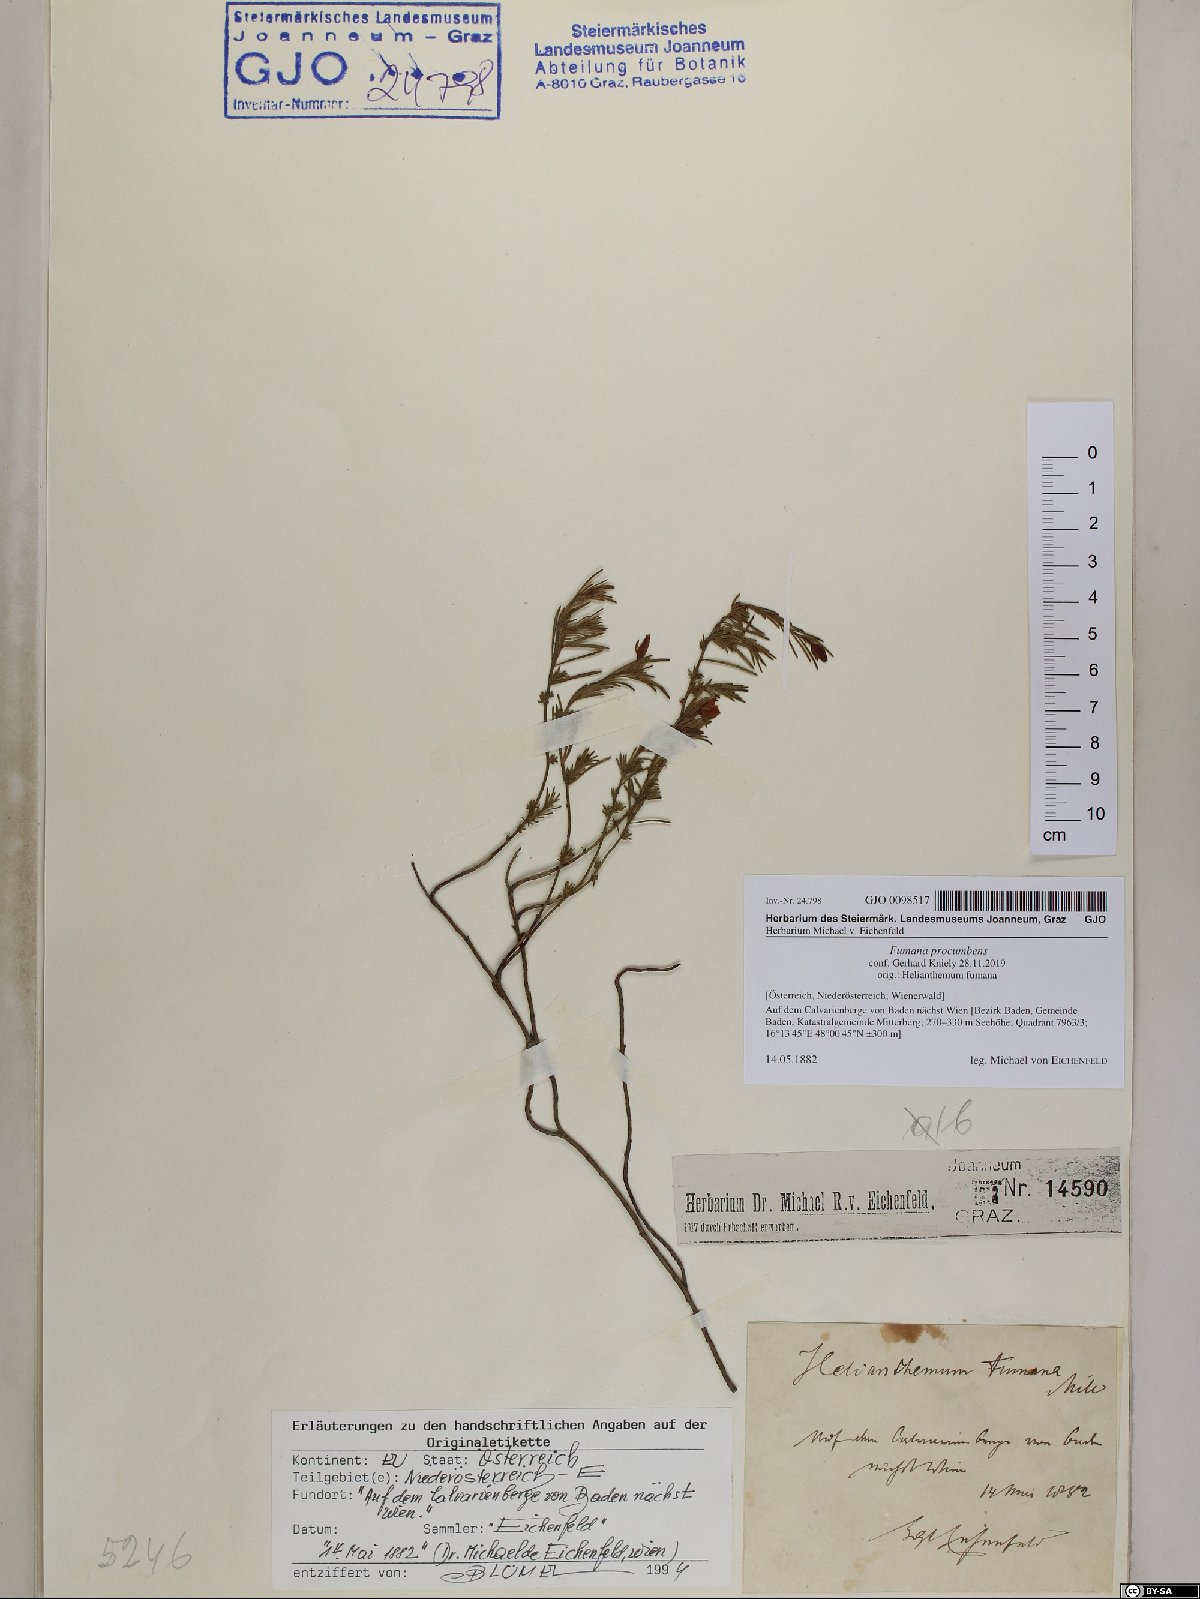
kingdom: Plantae
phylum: Tracheophyta
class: Magnoliopsida
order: Malvales
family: Cistaceae
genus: Fumana
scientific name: Fumana procumbens
